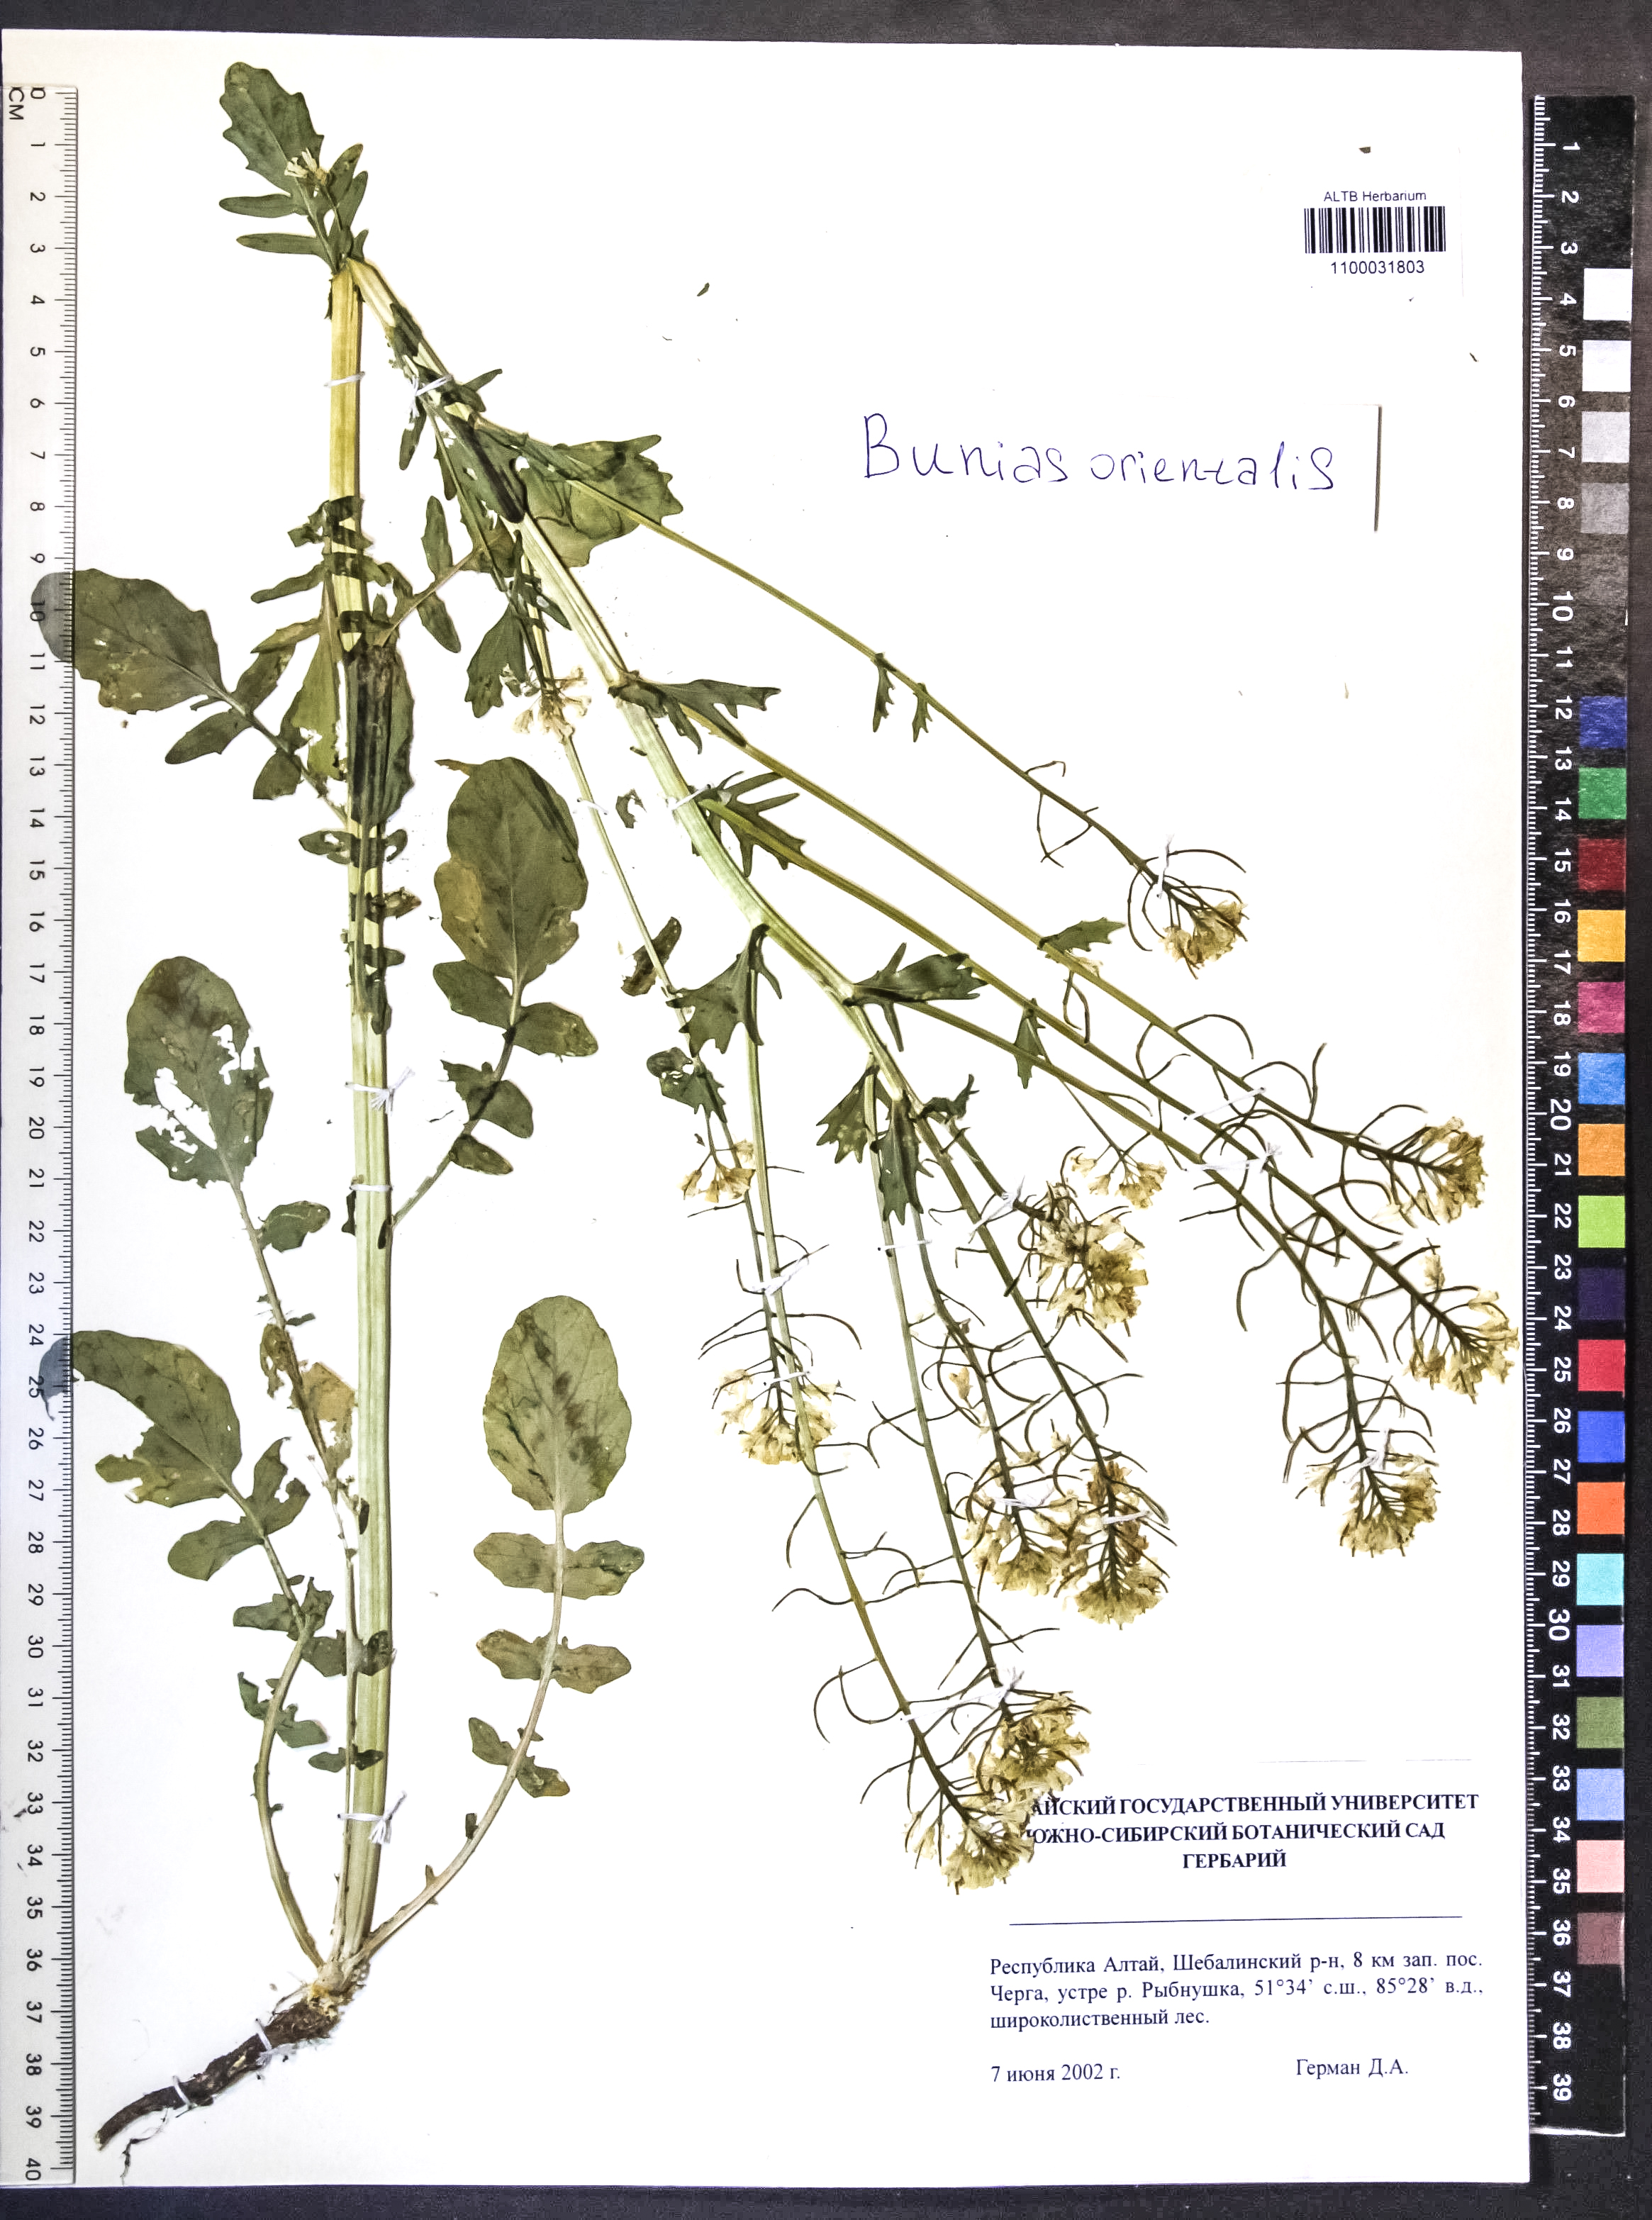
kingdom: Plantae
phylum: Tracheophyta
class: Magnoliopsida
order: Brassicales
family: Brassicaceae
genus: Bunias
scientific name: Bunias orientalis
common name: Warty-cabbage
